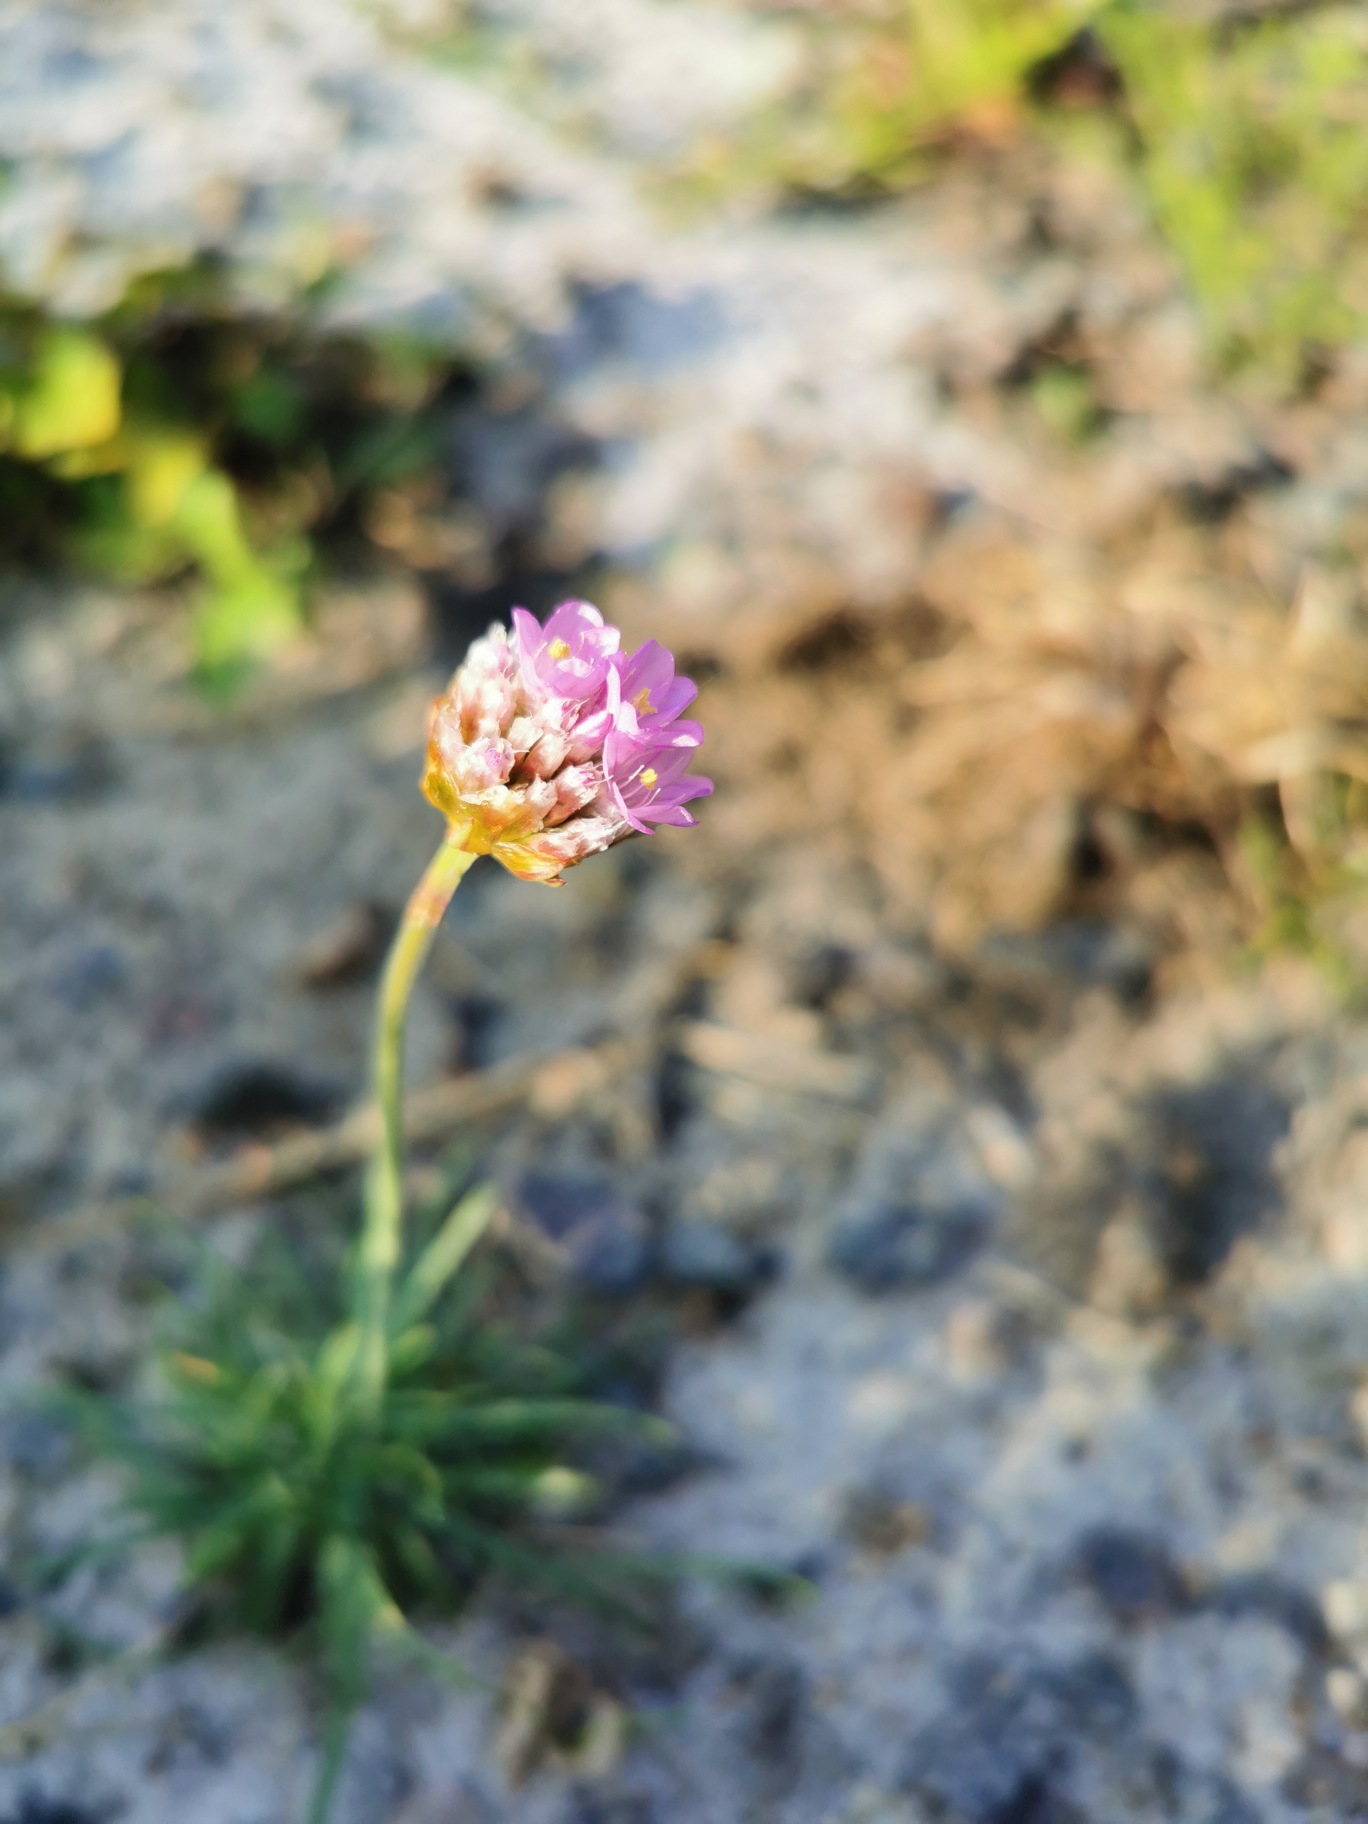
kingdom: Plantae
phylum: Tracheophyta
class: Magnoliopsida
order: Caryophyllales
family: Plumbaginaceae
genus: Armeria
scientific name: Armeria maritima
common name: Engelskgræs
